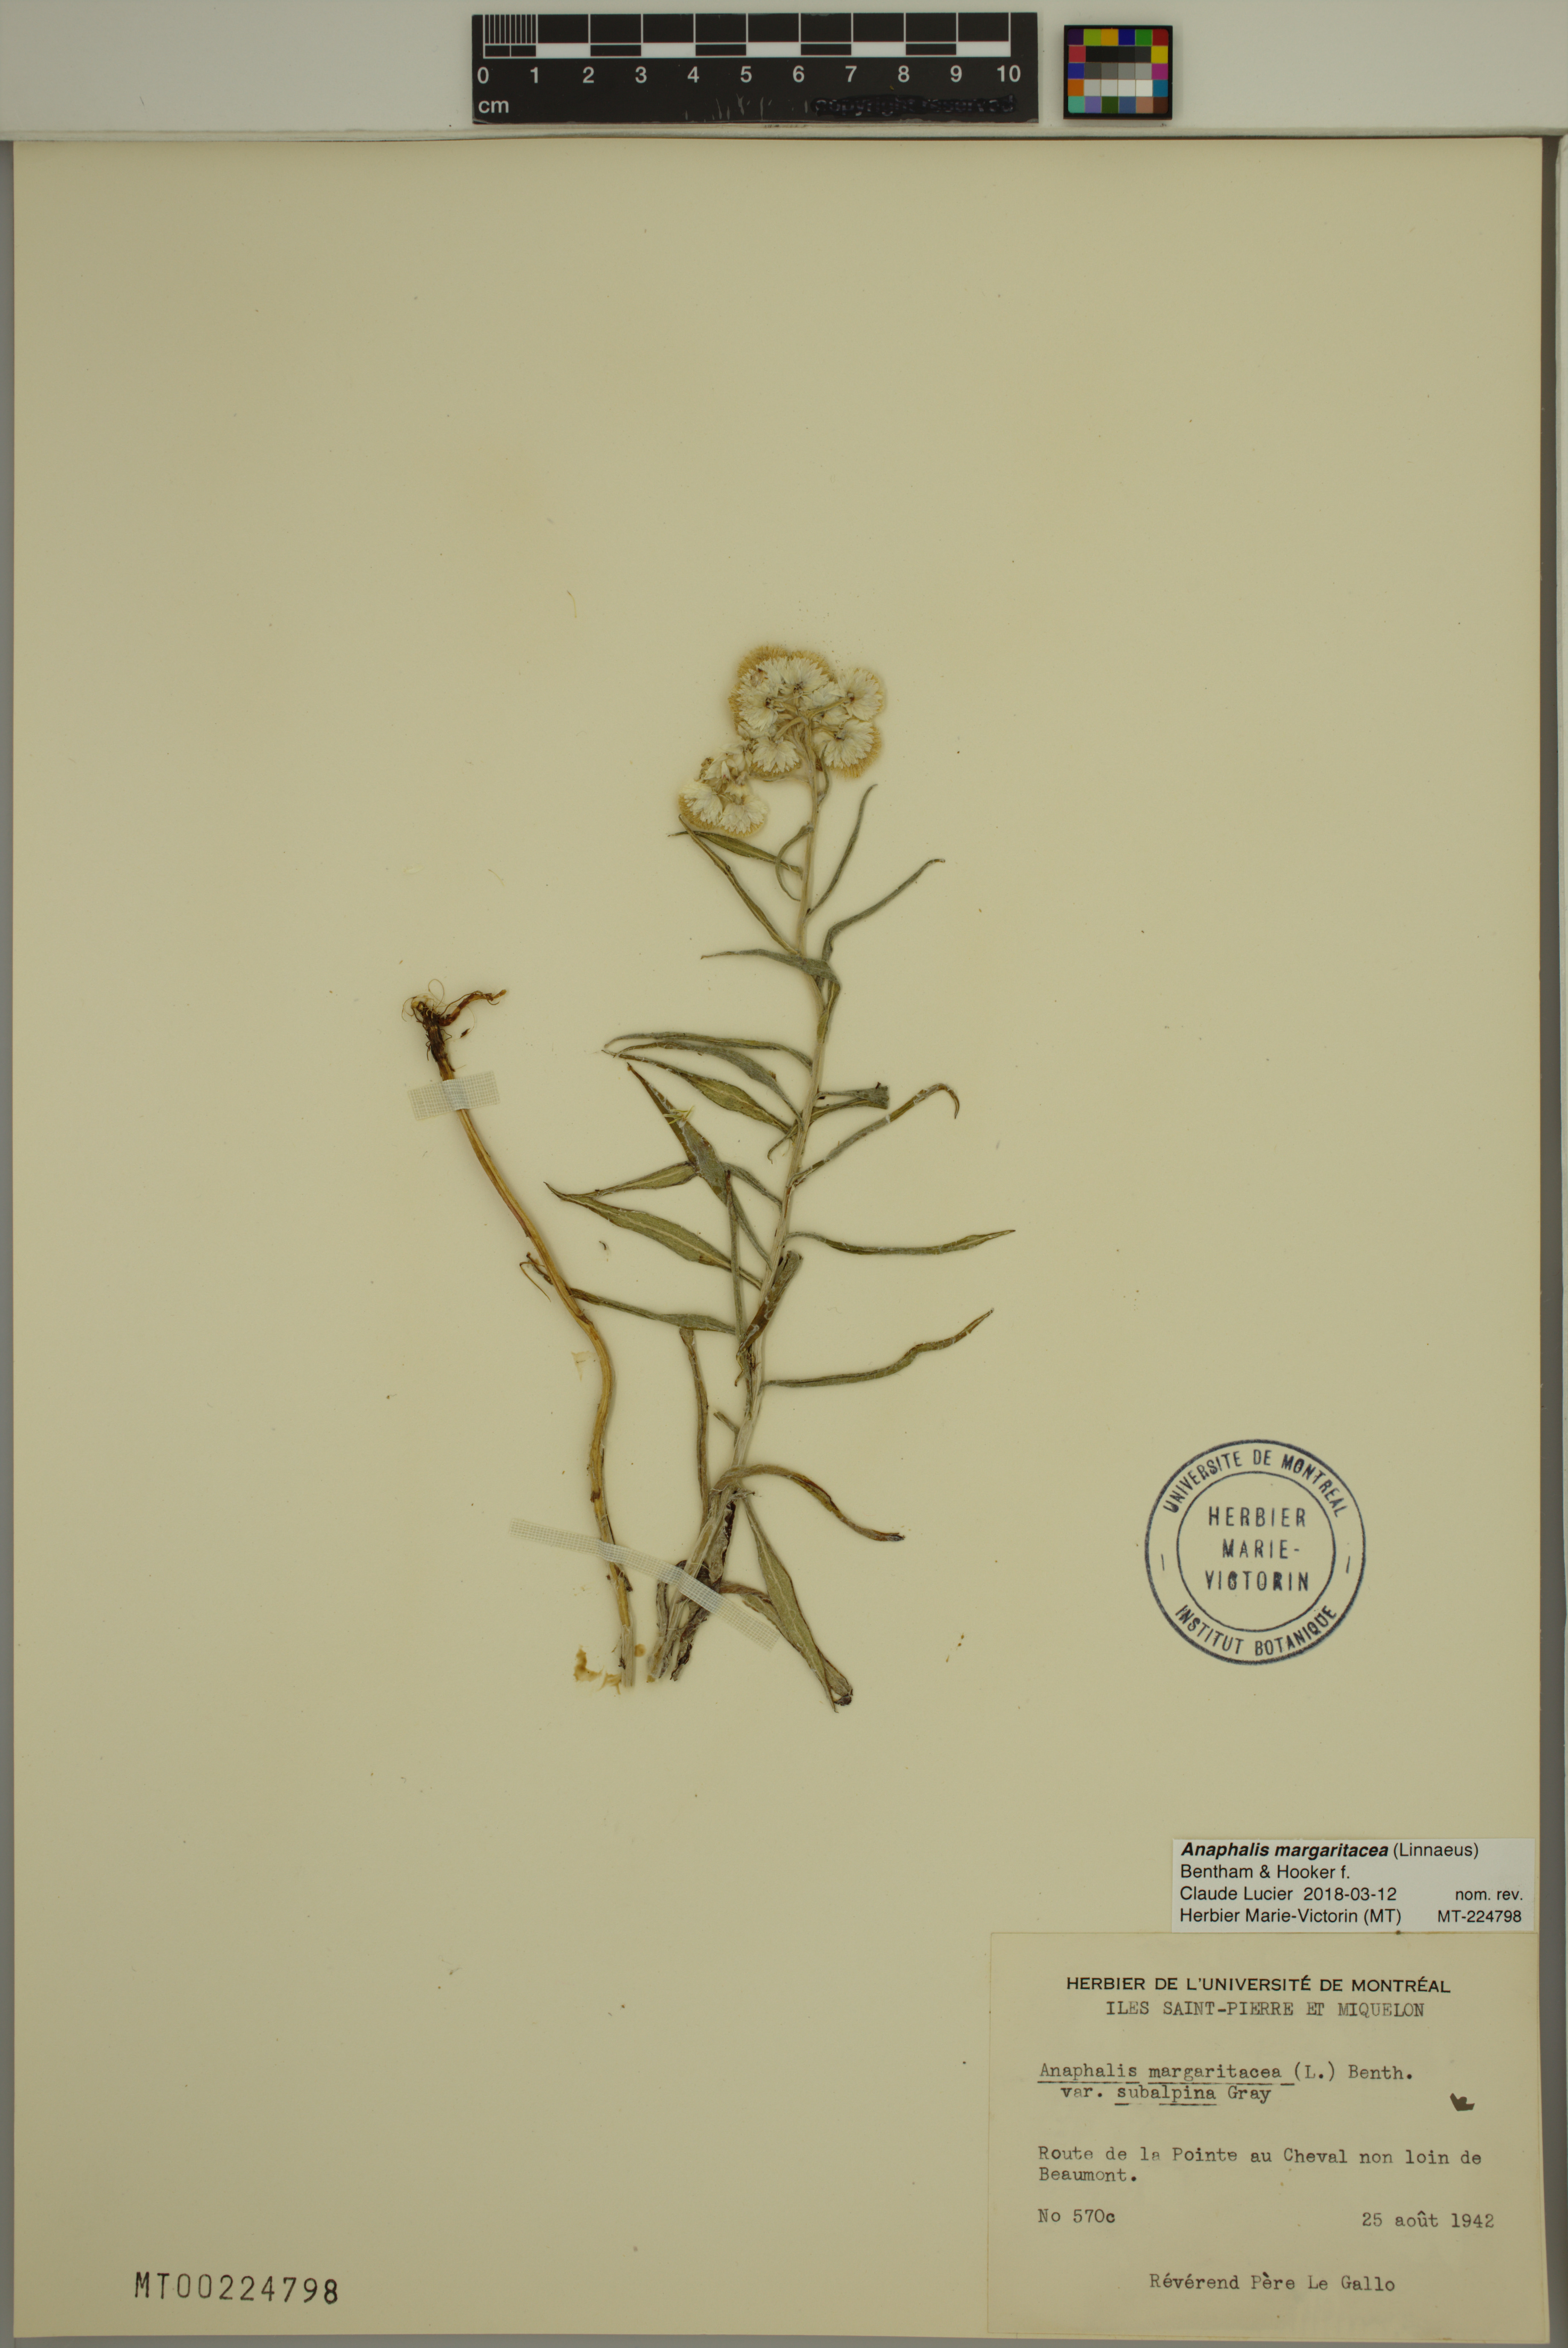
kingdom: Plantae
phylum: Tracheophyta
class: Magnoliopsida
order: Asterales
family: Asteraceae
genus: Anaphalis
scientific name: Anaphalis margaritacea
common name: Pearly everlasting
